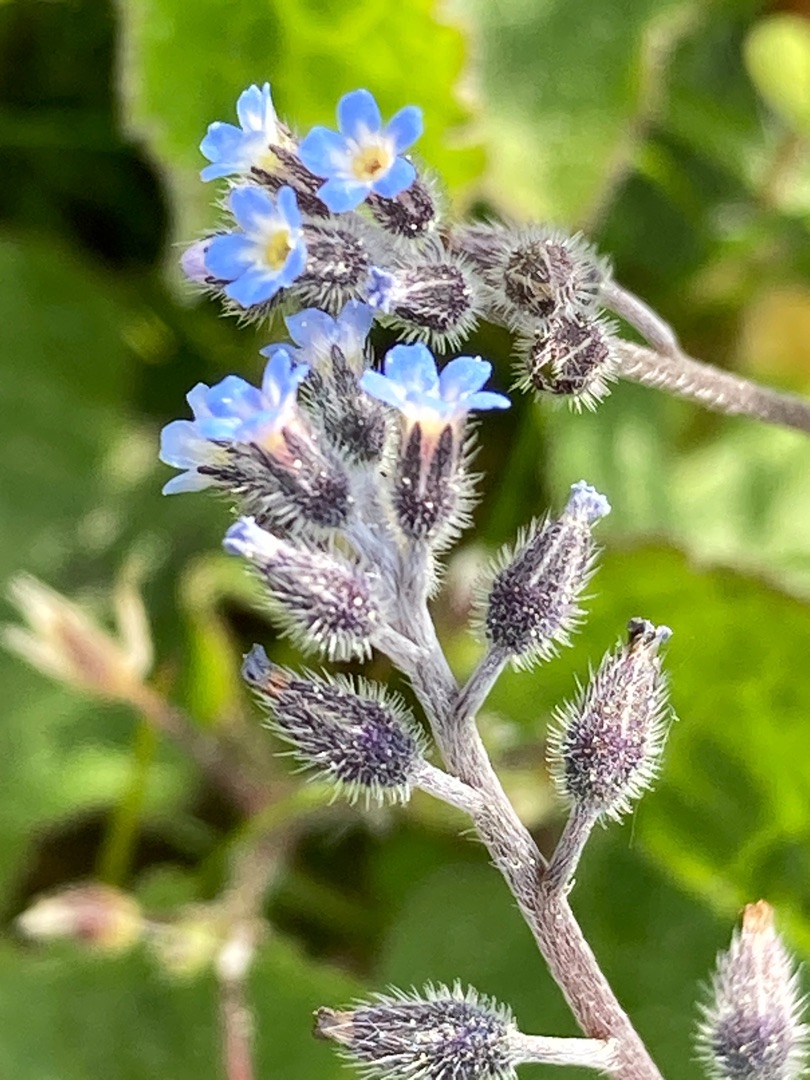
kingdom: Plantae
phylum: Tracheophyta
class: Magnoliopsida
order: Boraginales
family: Boraginaceae
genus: Myosotis
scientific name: Myosotis ramosissima
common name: Bakke-forglemmigej
